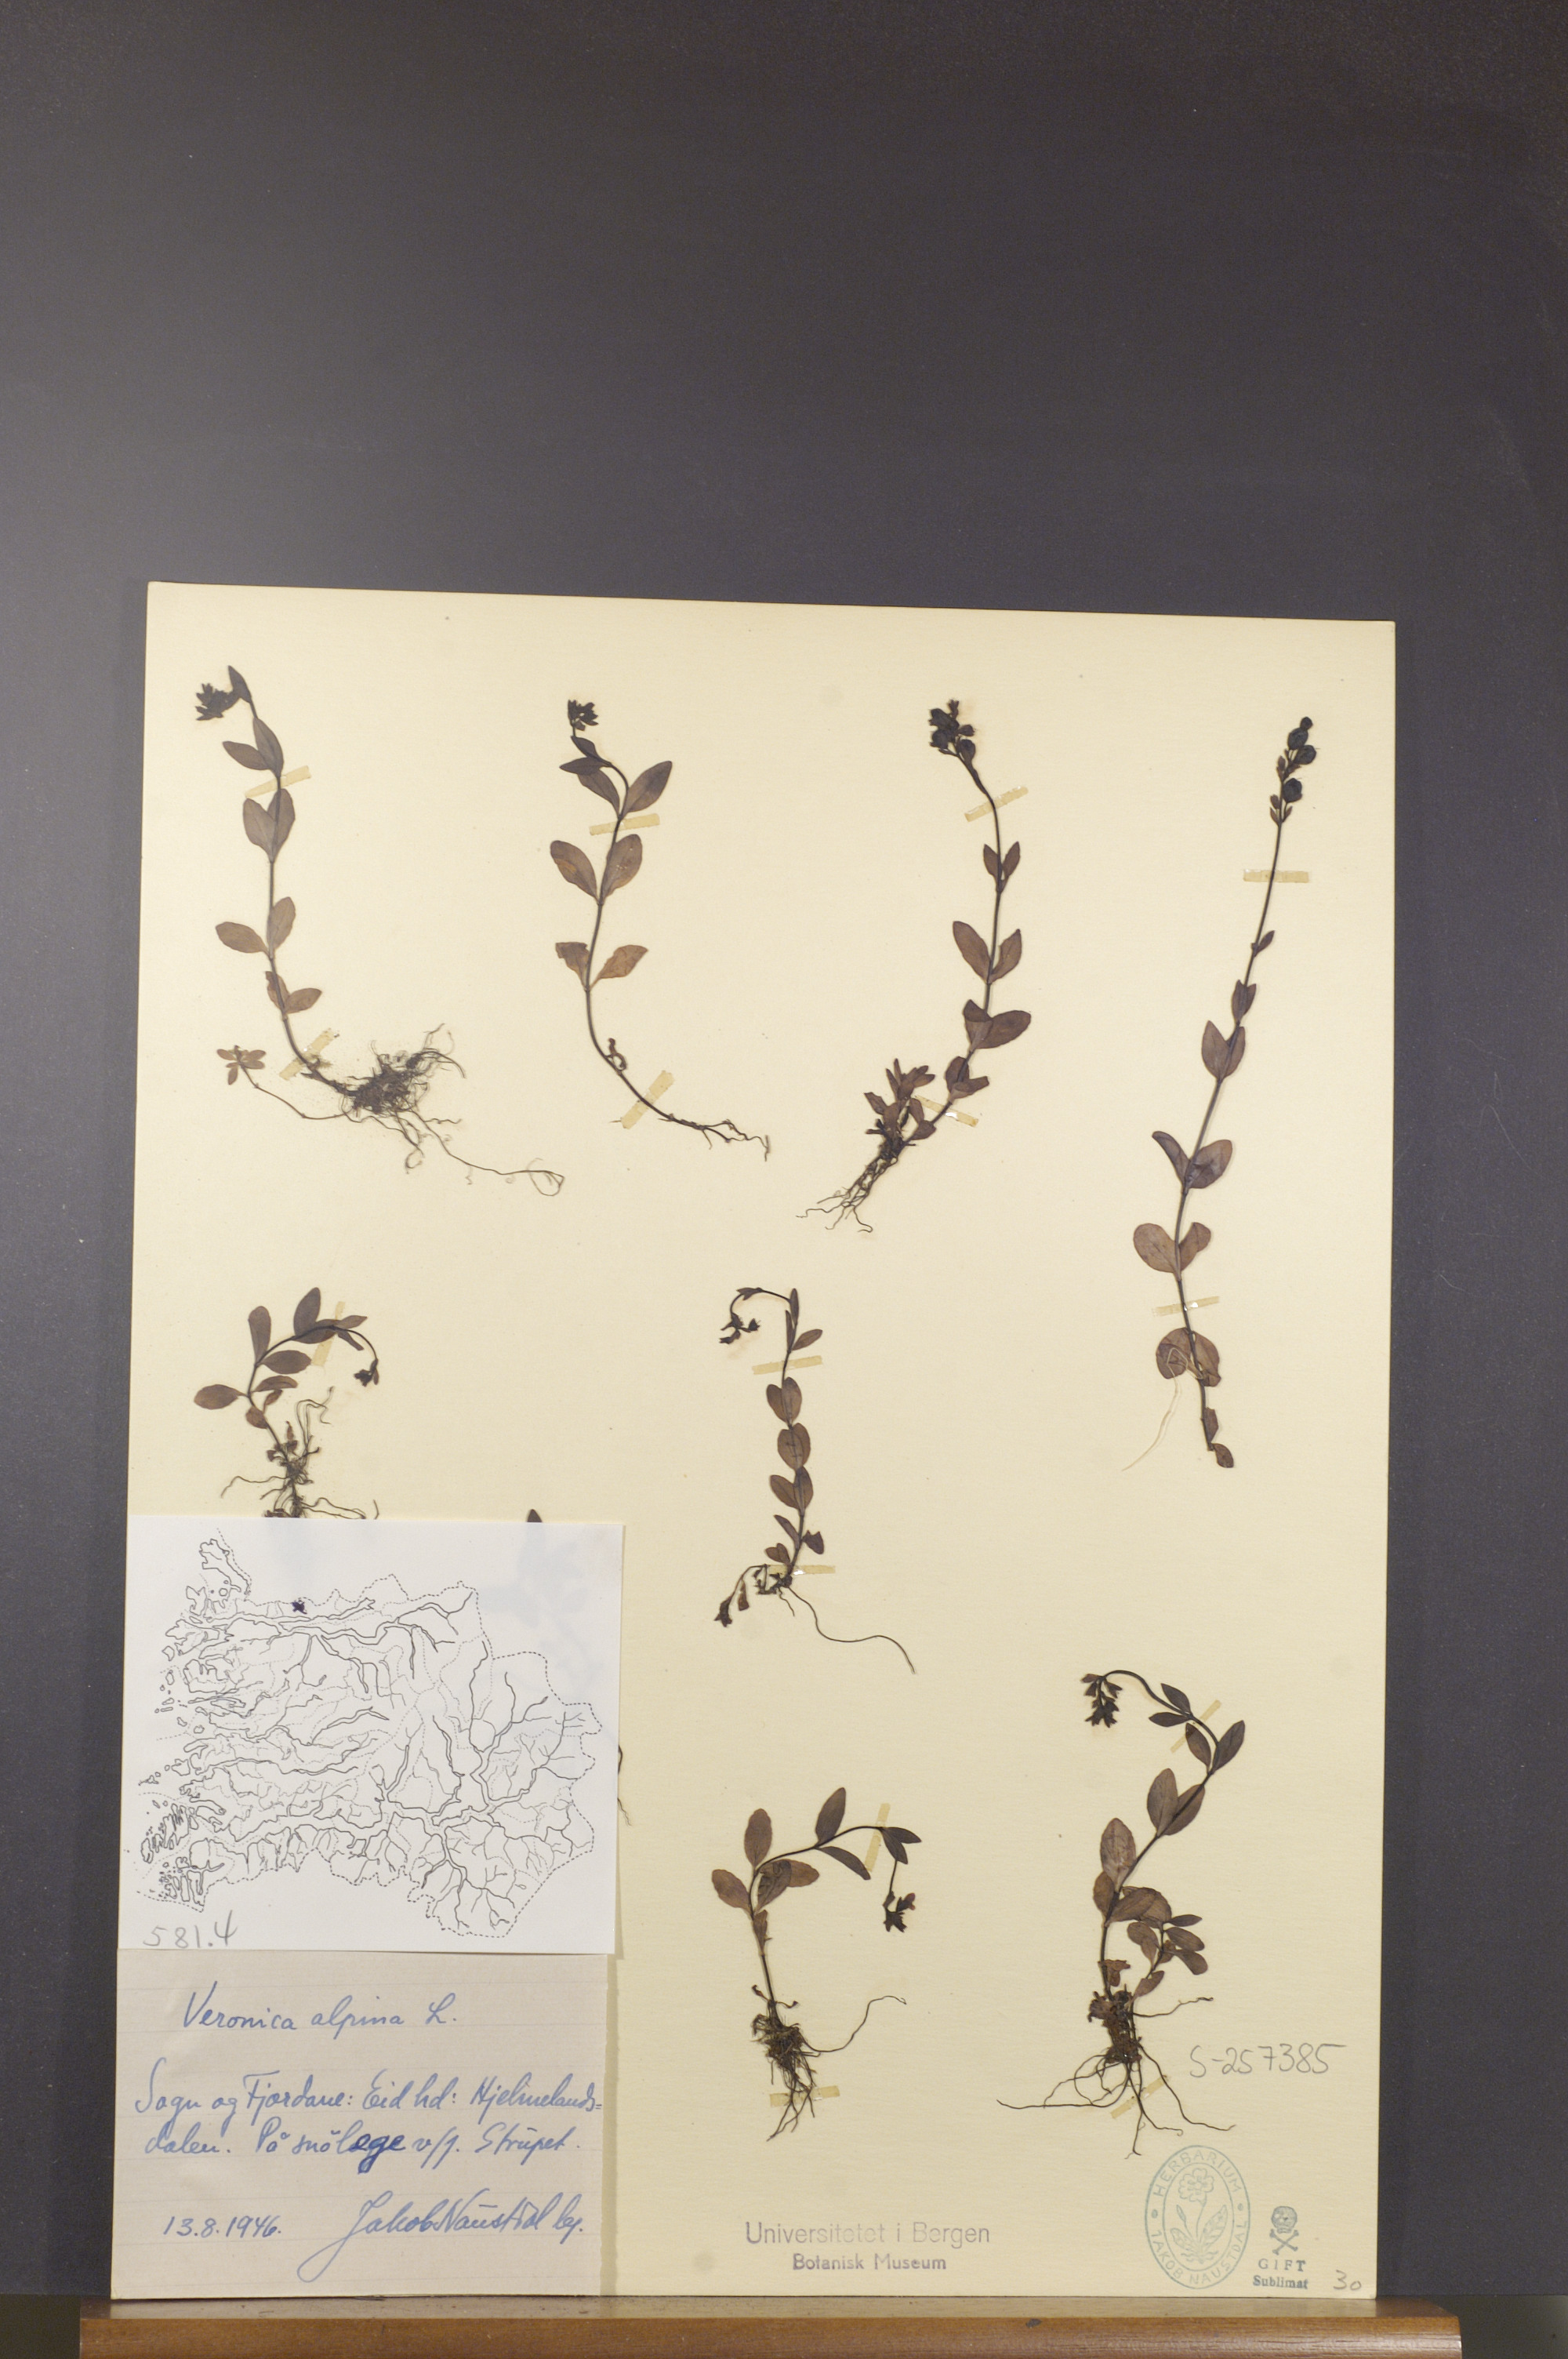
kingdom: Plantae
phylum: Tracheophyta
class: Magnoliopsida
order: Lamiales
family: Plantaginaceae
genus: Veronica
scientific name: Veronica alpina
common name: Alpine speedwell
